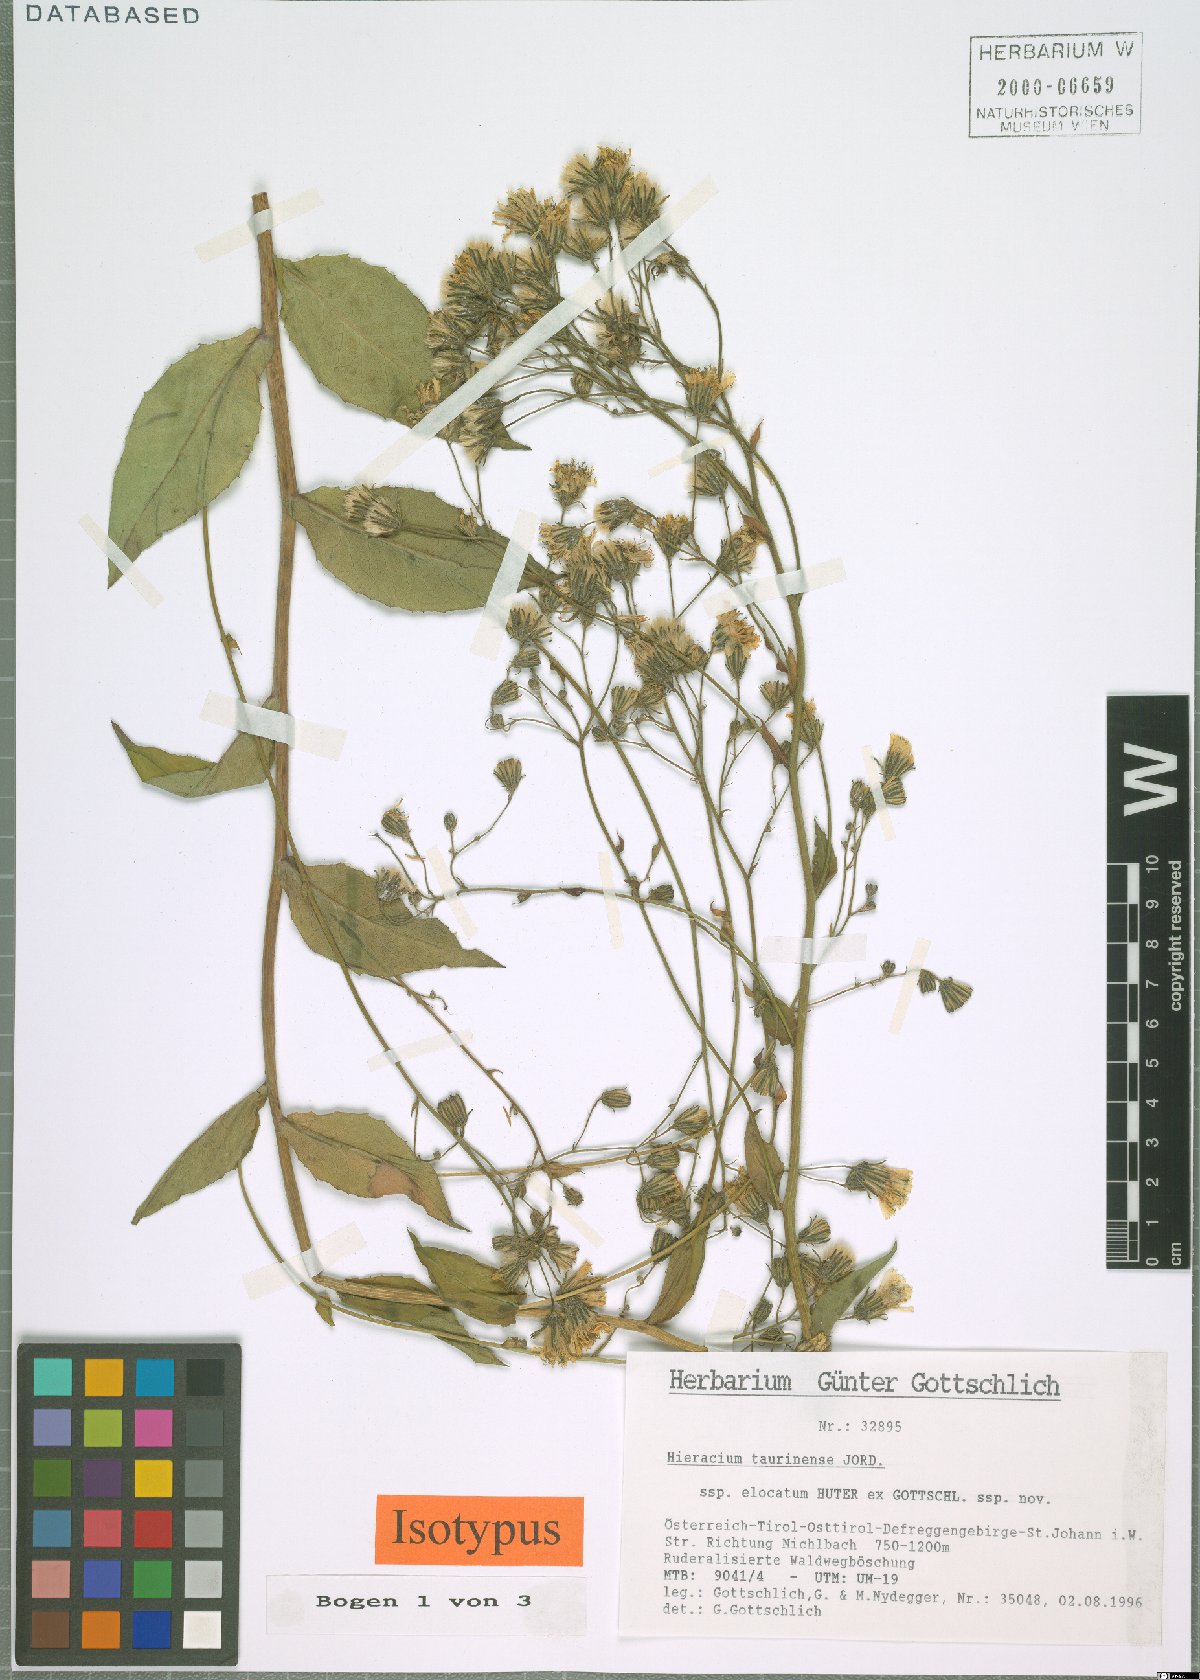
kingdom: Plantae
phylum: Tracheophyta
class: Magnoliopsida
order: Asterales
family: Asteraceae
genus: Hieracium
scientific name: Hieracium symphytaceum
